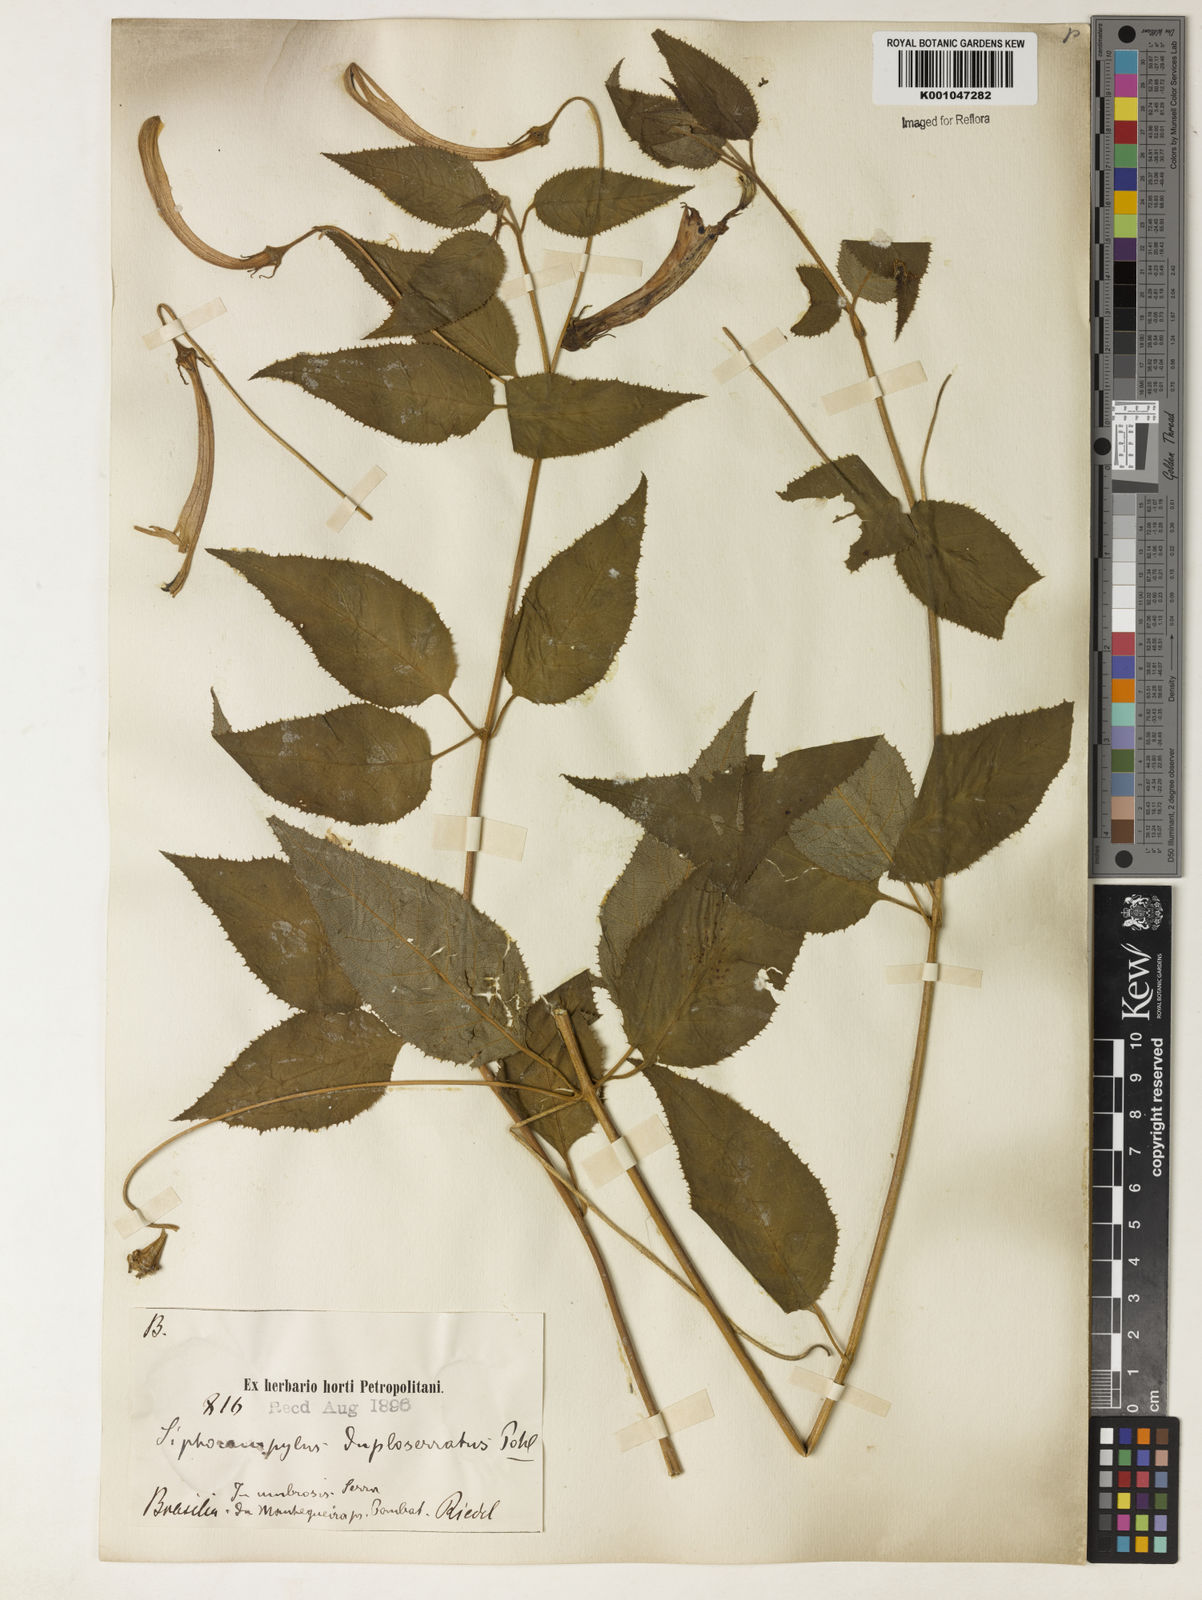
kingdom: Plantae
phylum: Tracheophyta
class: Magnoliopsida
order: Asterales
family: Campanulaceae
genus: Siphocampylus
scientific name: Siphocampylus duploserratus
